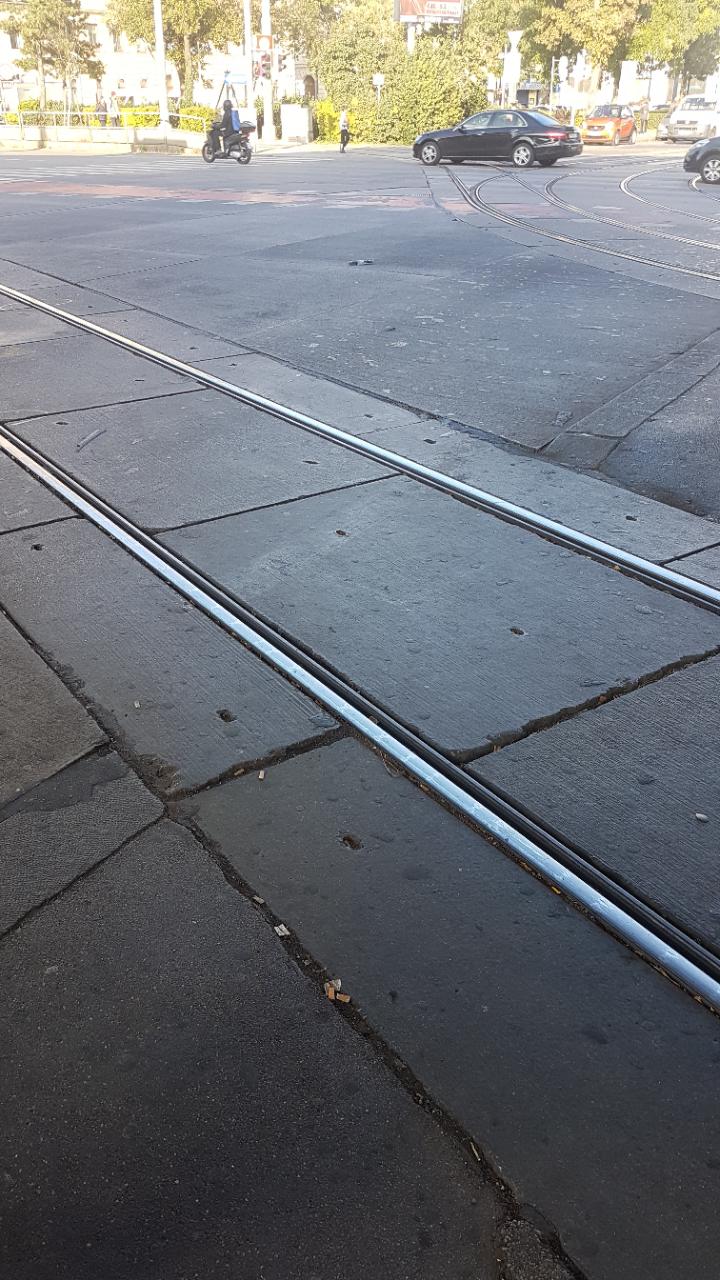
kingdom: Animalia
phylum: Chordata
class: Aves
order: Columbiformes
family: Columbidae
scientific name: Columbidae
